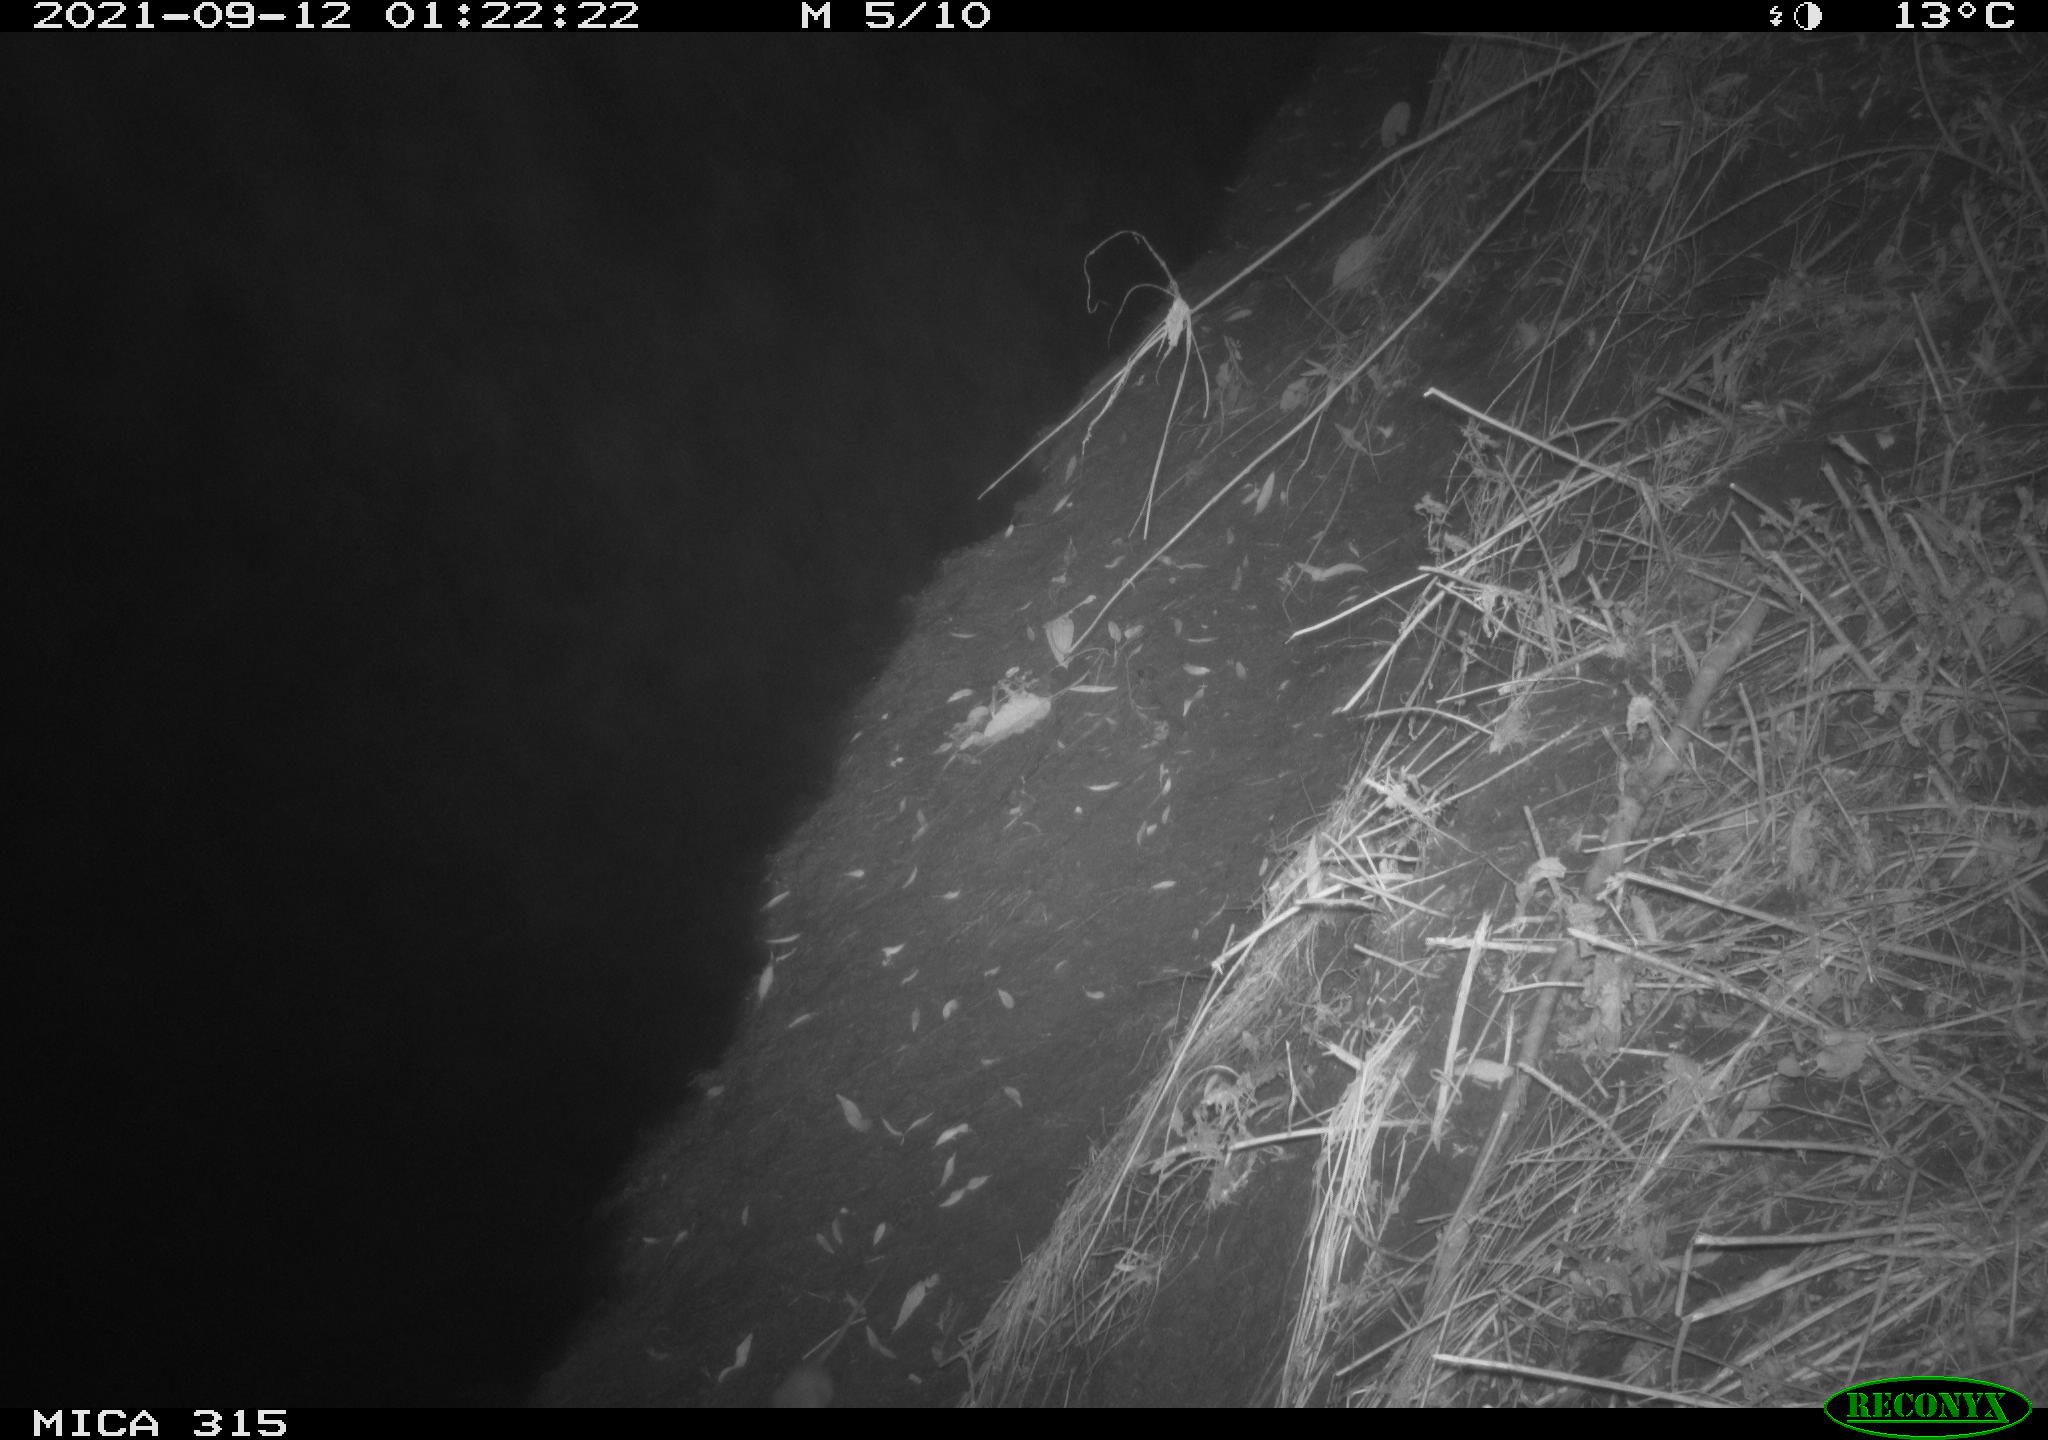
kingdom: Animalia
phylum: Chordata
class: Mammalia
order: Rodentia
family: Muridae
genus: Rattus
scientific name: Rattus norvegicus
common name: Brown rat
